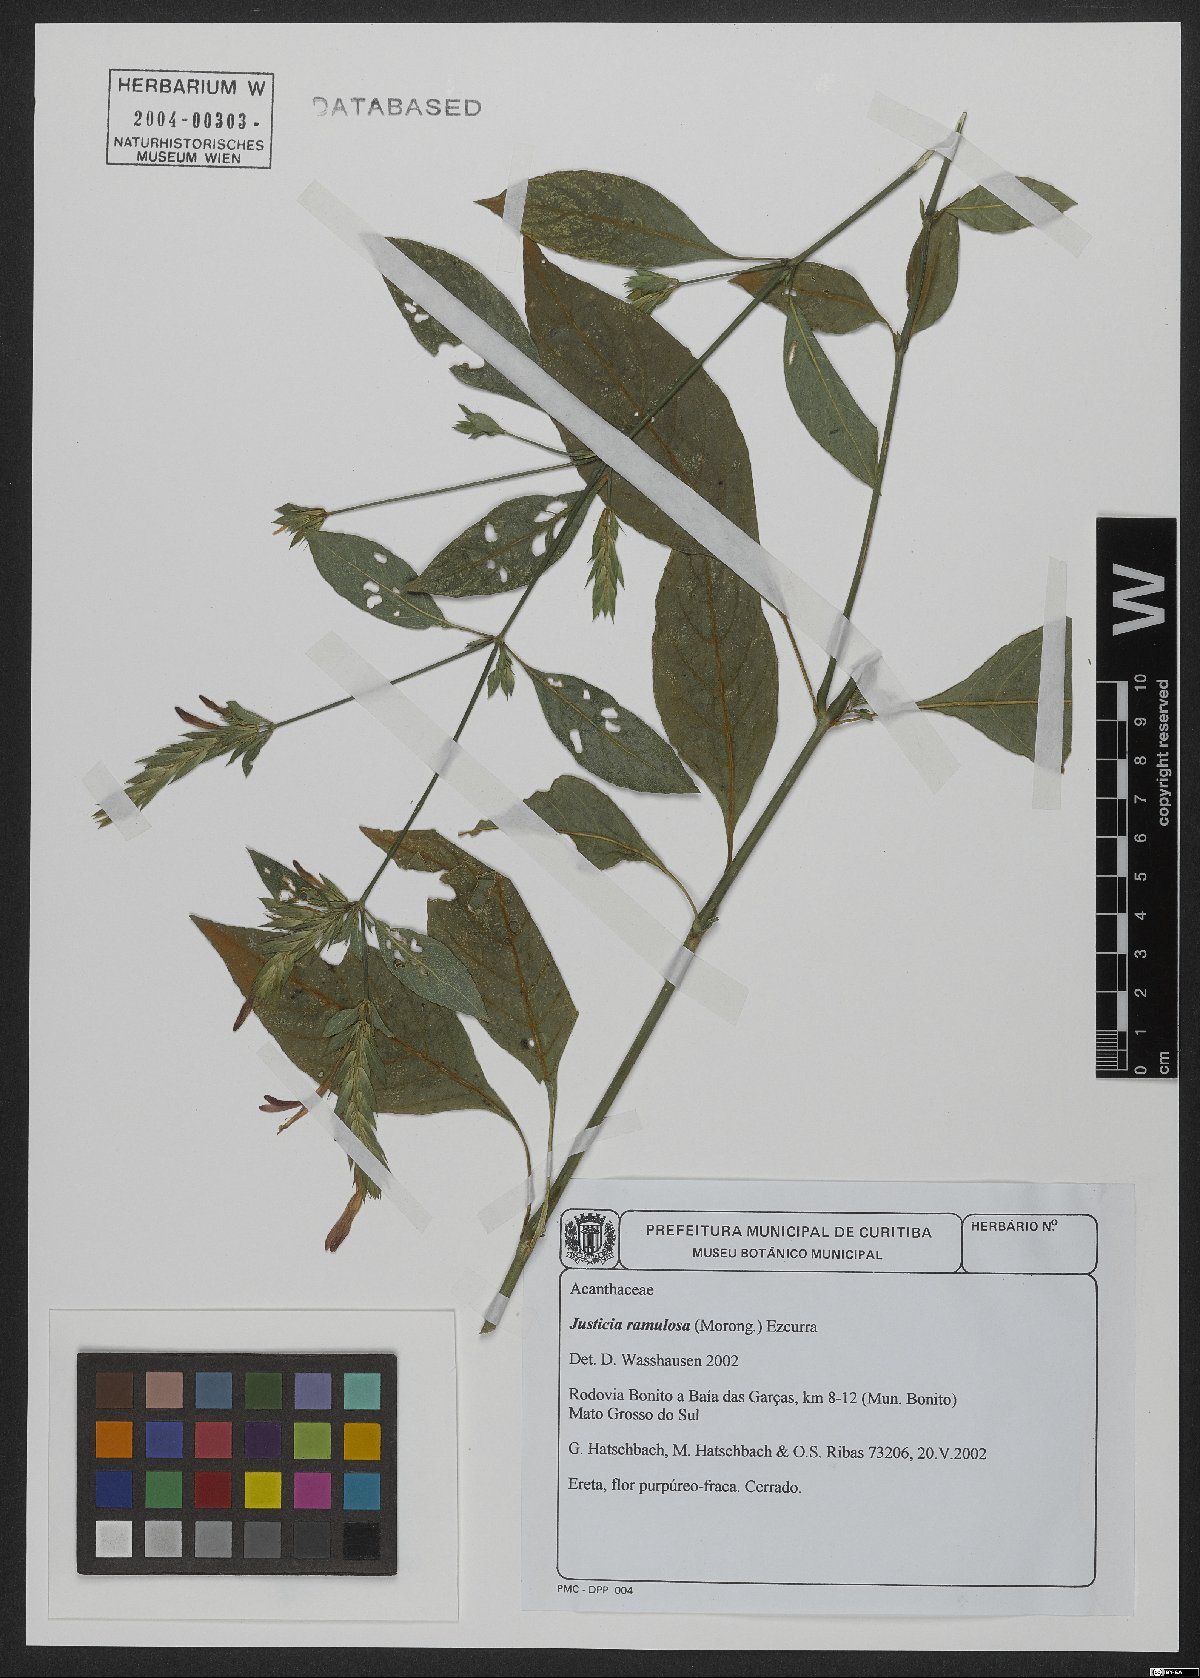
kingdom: Plantae
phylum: Tracheophyta
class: Magnoliopsida
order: Lamiales
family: Acanthaceae
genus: Justicia
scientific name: Justicia ramulosa
